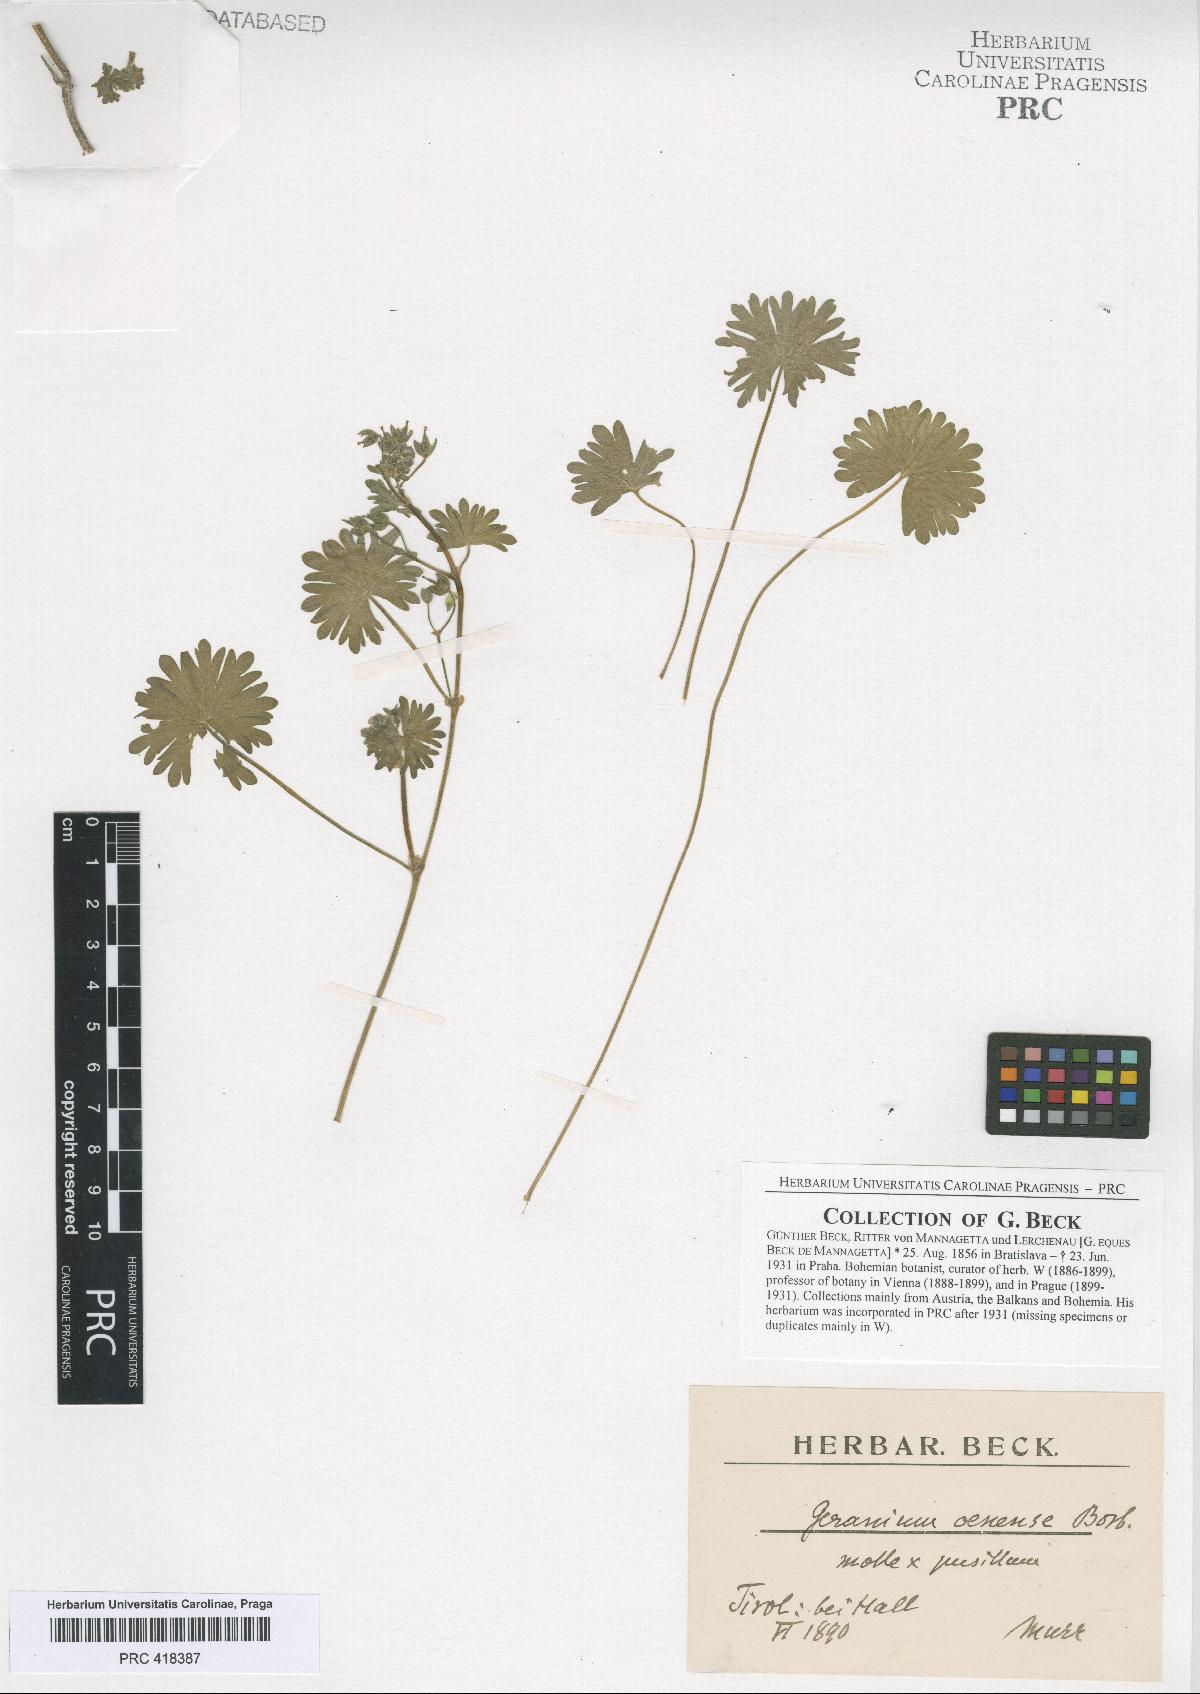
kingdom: Plantae
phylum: Tracheophyta
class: Magnoliopsida
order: Geraniales
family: Geraniaceae
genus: Geranium
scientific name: Geranium molle
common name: Dove's-foot crane's-bill
